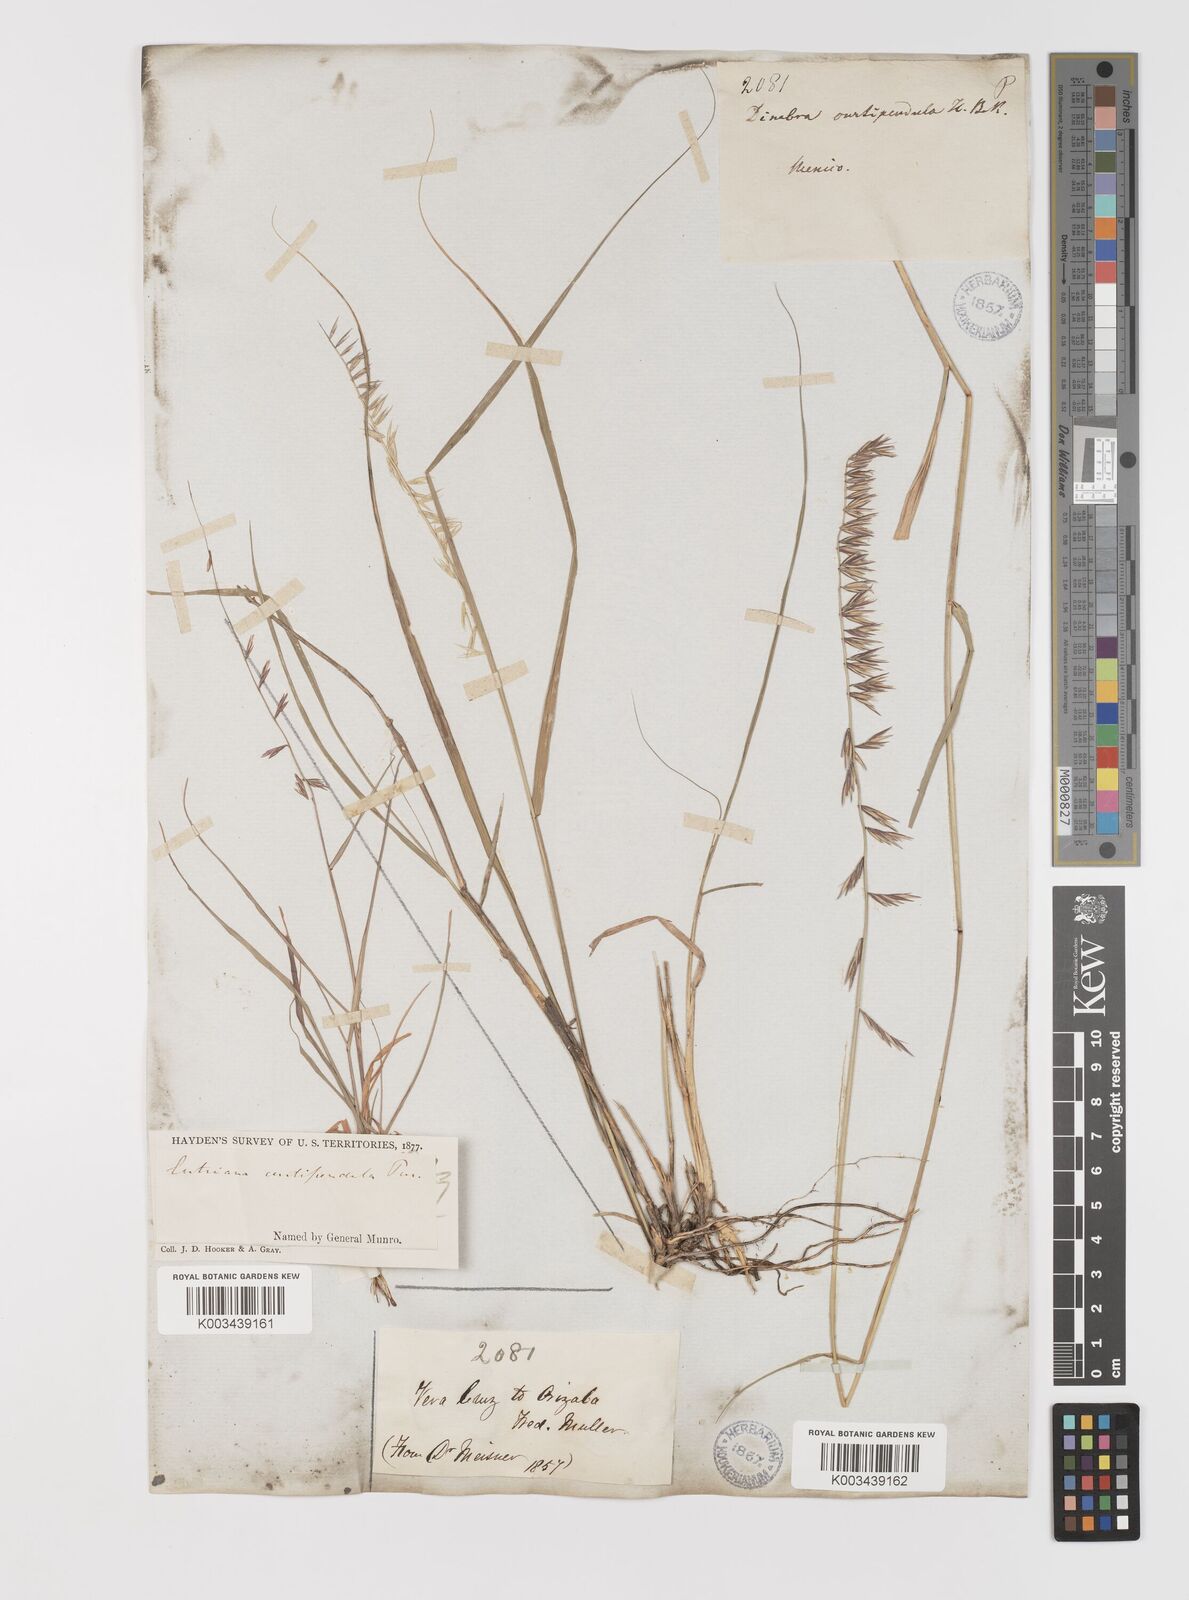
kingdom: Plantae
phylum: Tracheophyta
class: Liliopsida
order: Poales
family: Poaceae
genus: Bouteloua
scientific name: Bouteloua curtipendula
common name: Side-oats grama
